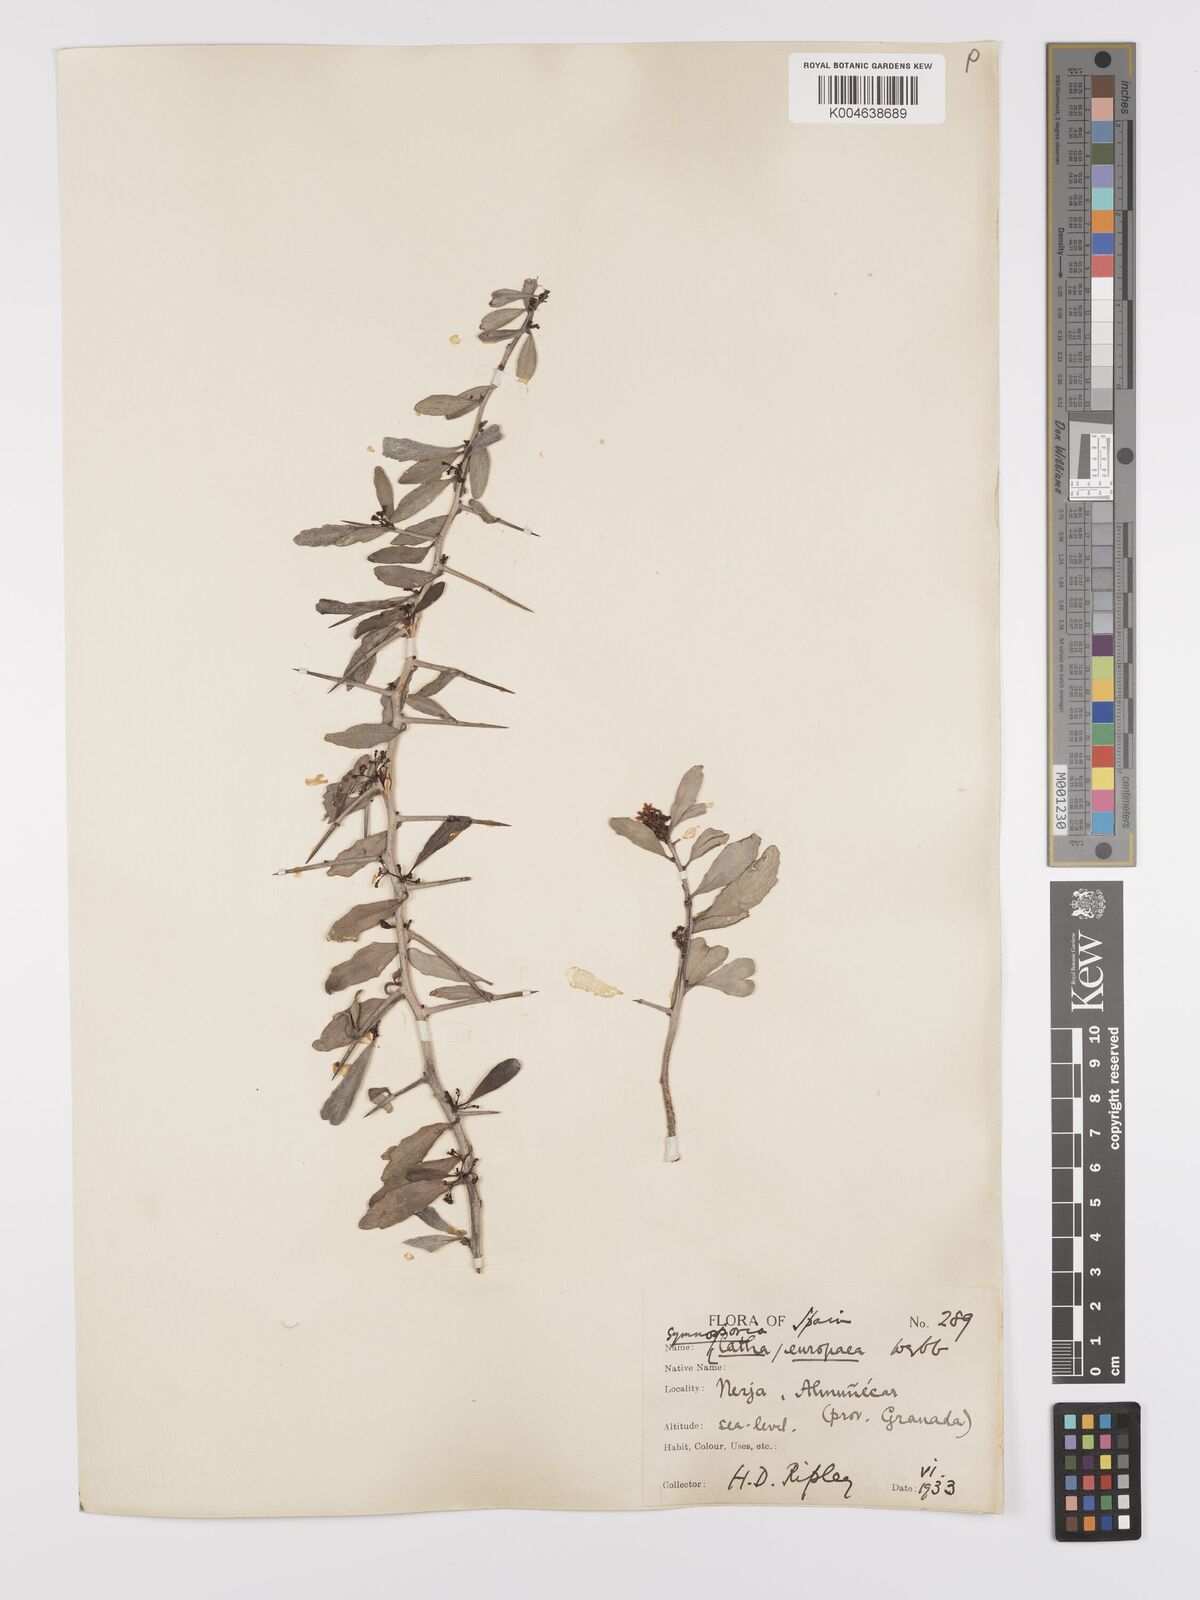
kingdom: Plantae
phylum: Tracheophyta
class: Magnoliopsida
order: Celastrales
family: Celastraceae
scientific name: Celastraceae
